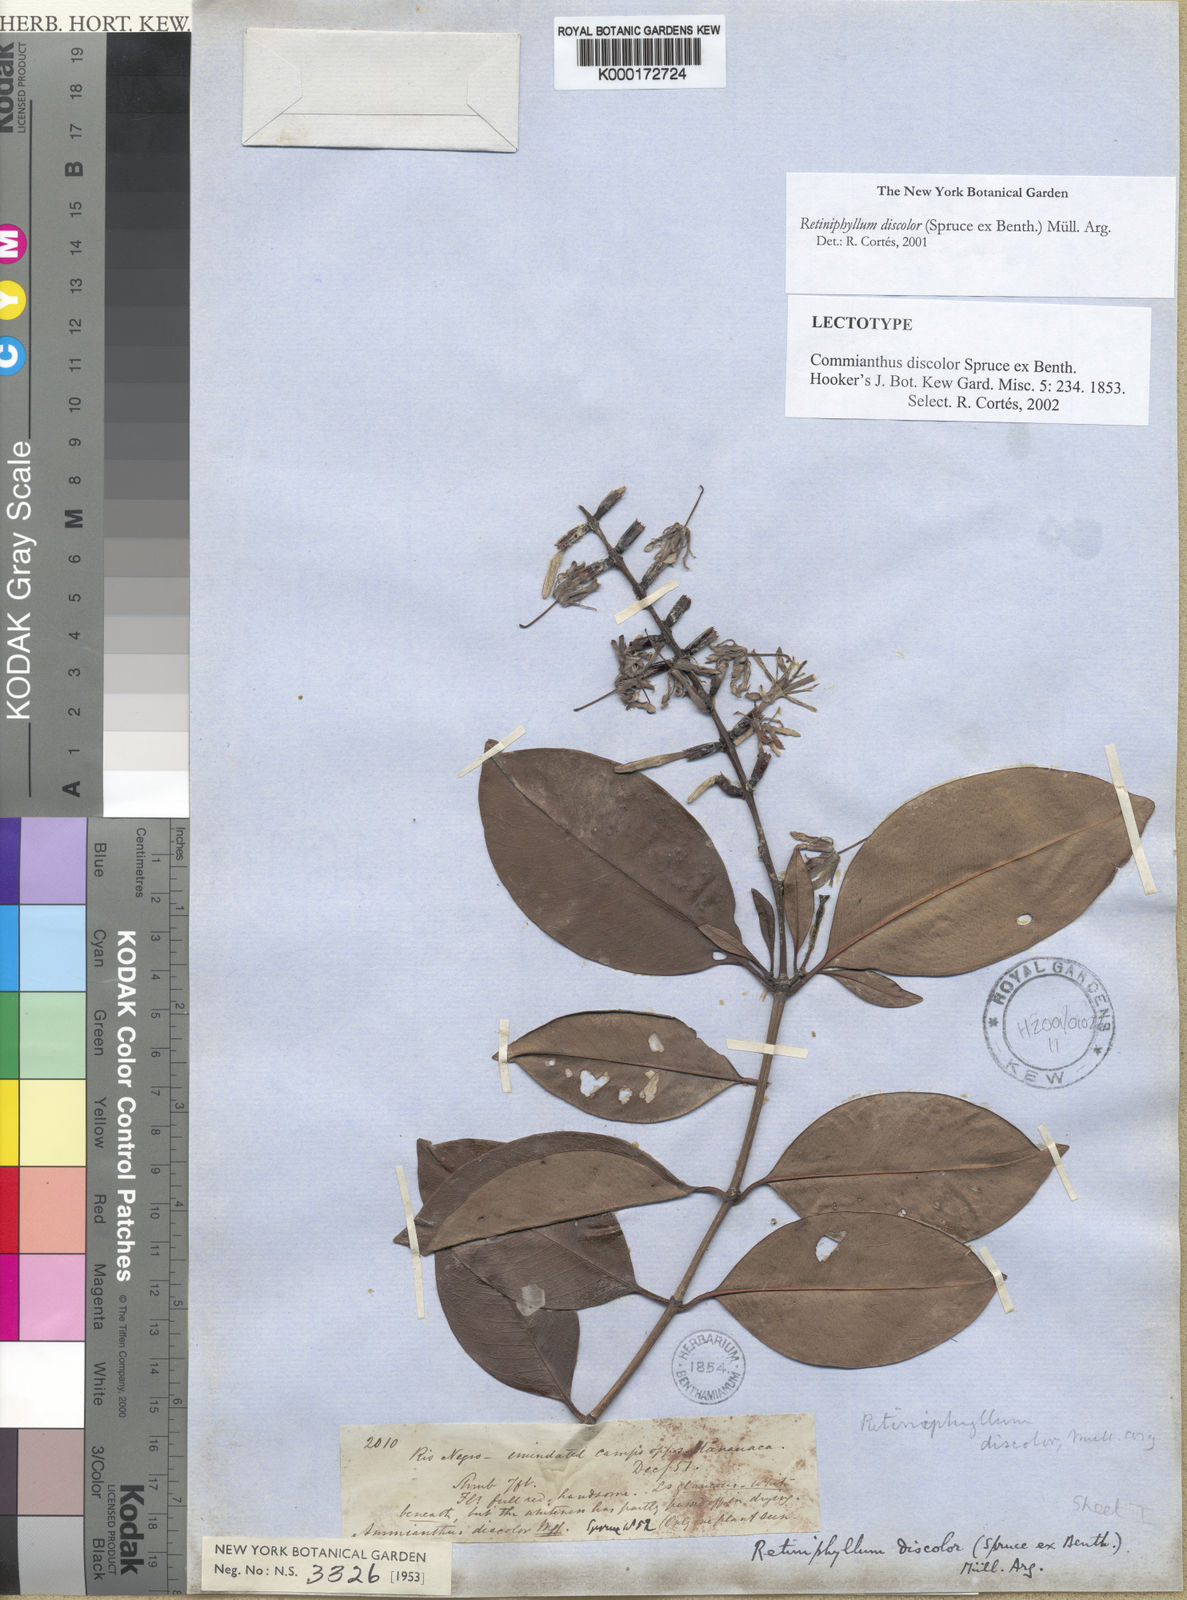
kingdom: Plantae
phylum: Tracheophyta
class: Magnoliopsida
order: Gentianales
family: Rubiaceae
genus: Retiniphyllum
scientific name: Retiniphyllum
